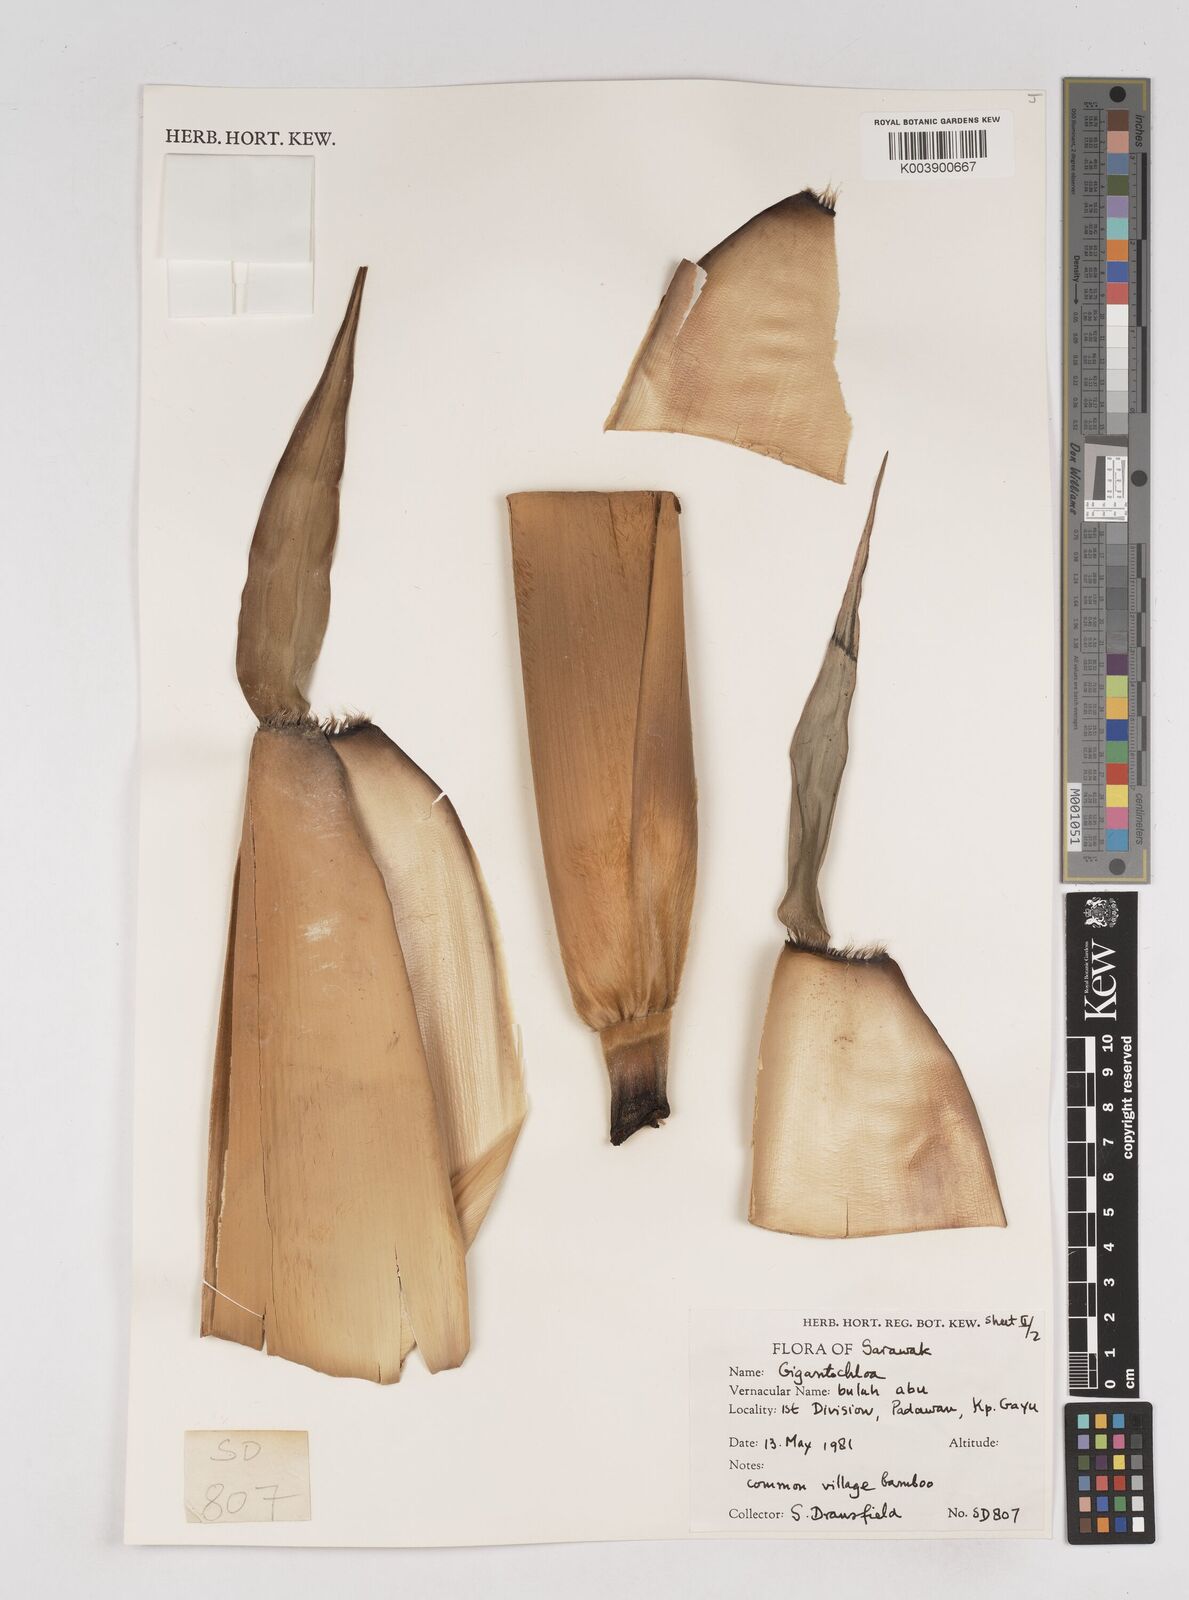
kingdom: Plantae
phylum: Tracheophyta
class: Liliopsida
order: Poales
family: Poaceae
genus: Gigantochloa
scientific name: Gigantochloa
